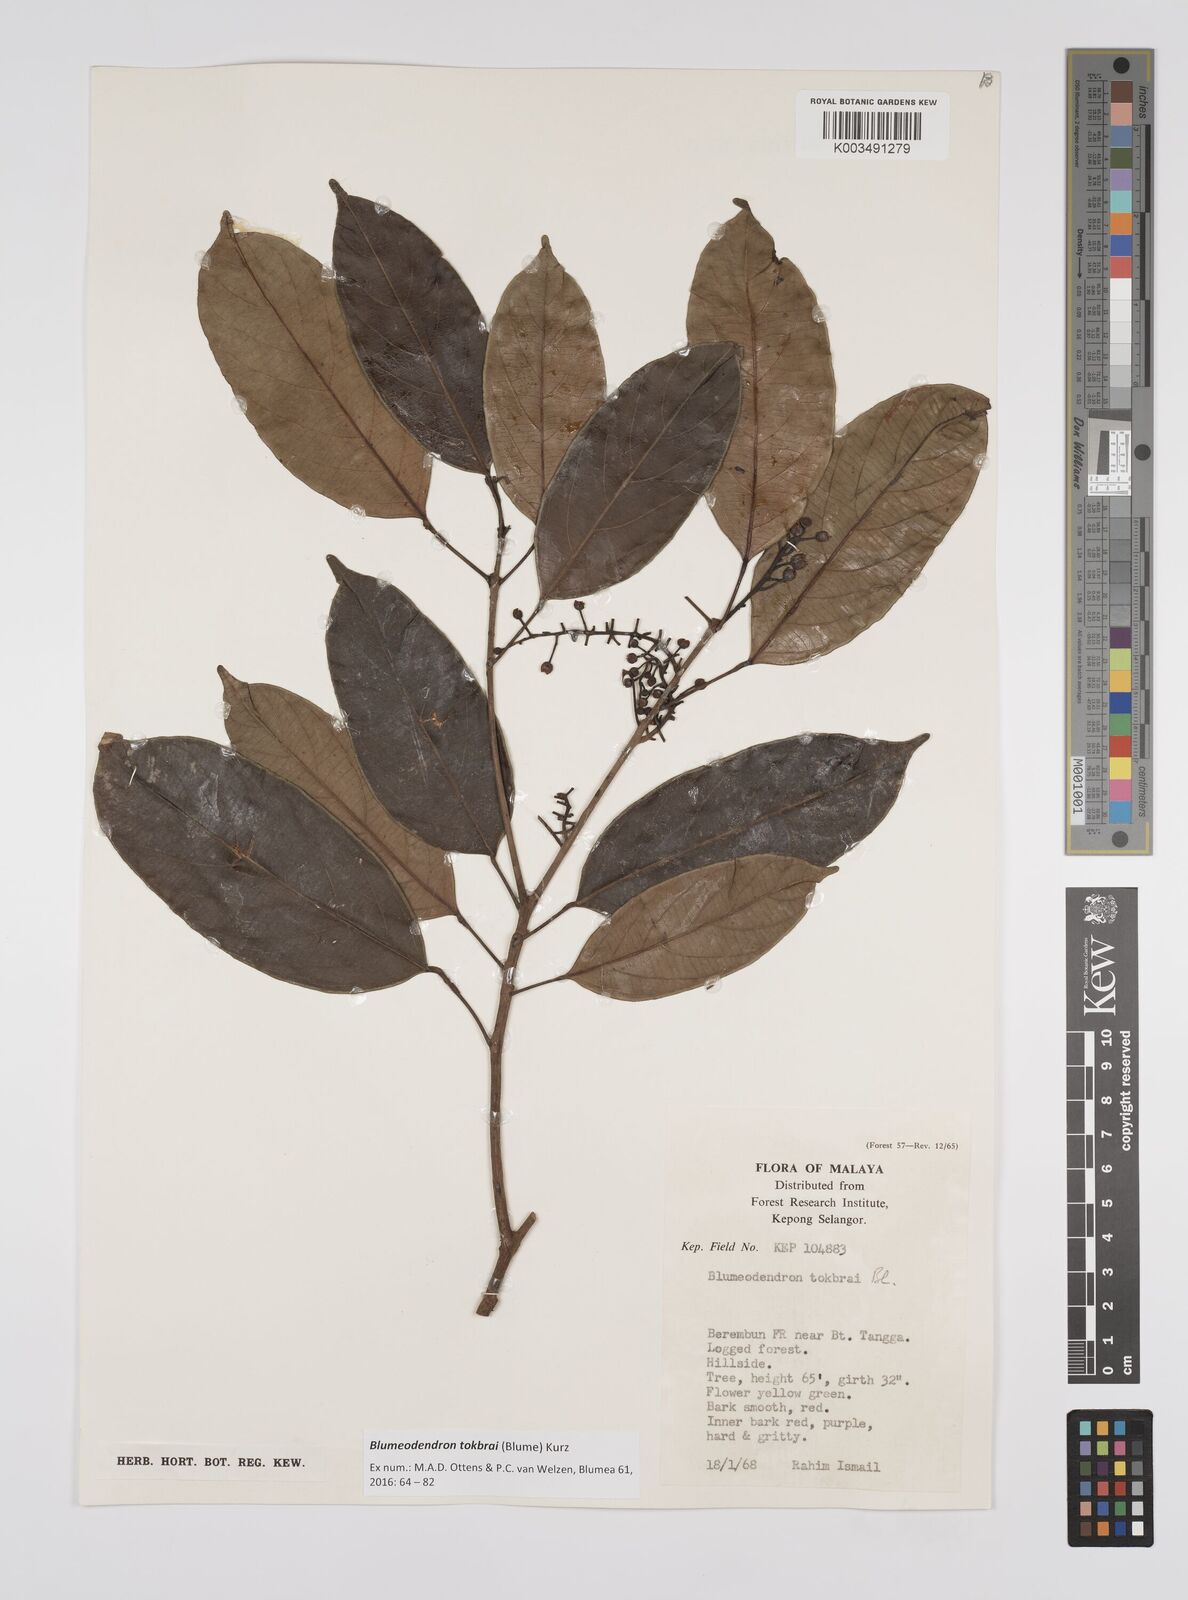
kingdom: Plantae
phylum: Tracheophyta
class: Magnoliopsida
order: Malpighiales
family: Euphorbiaceae
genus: Blumeodendron
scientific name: Blumeodendron tokbrai
